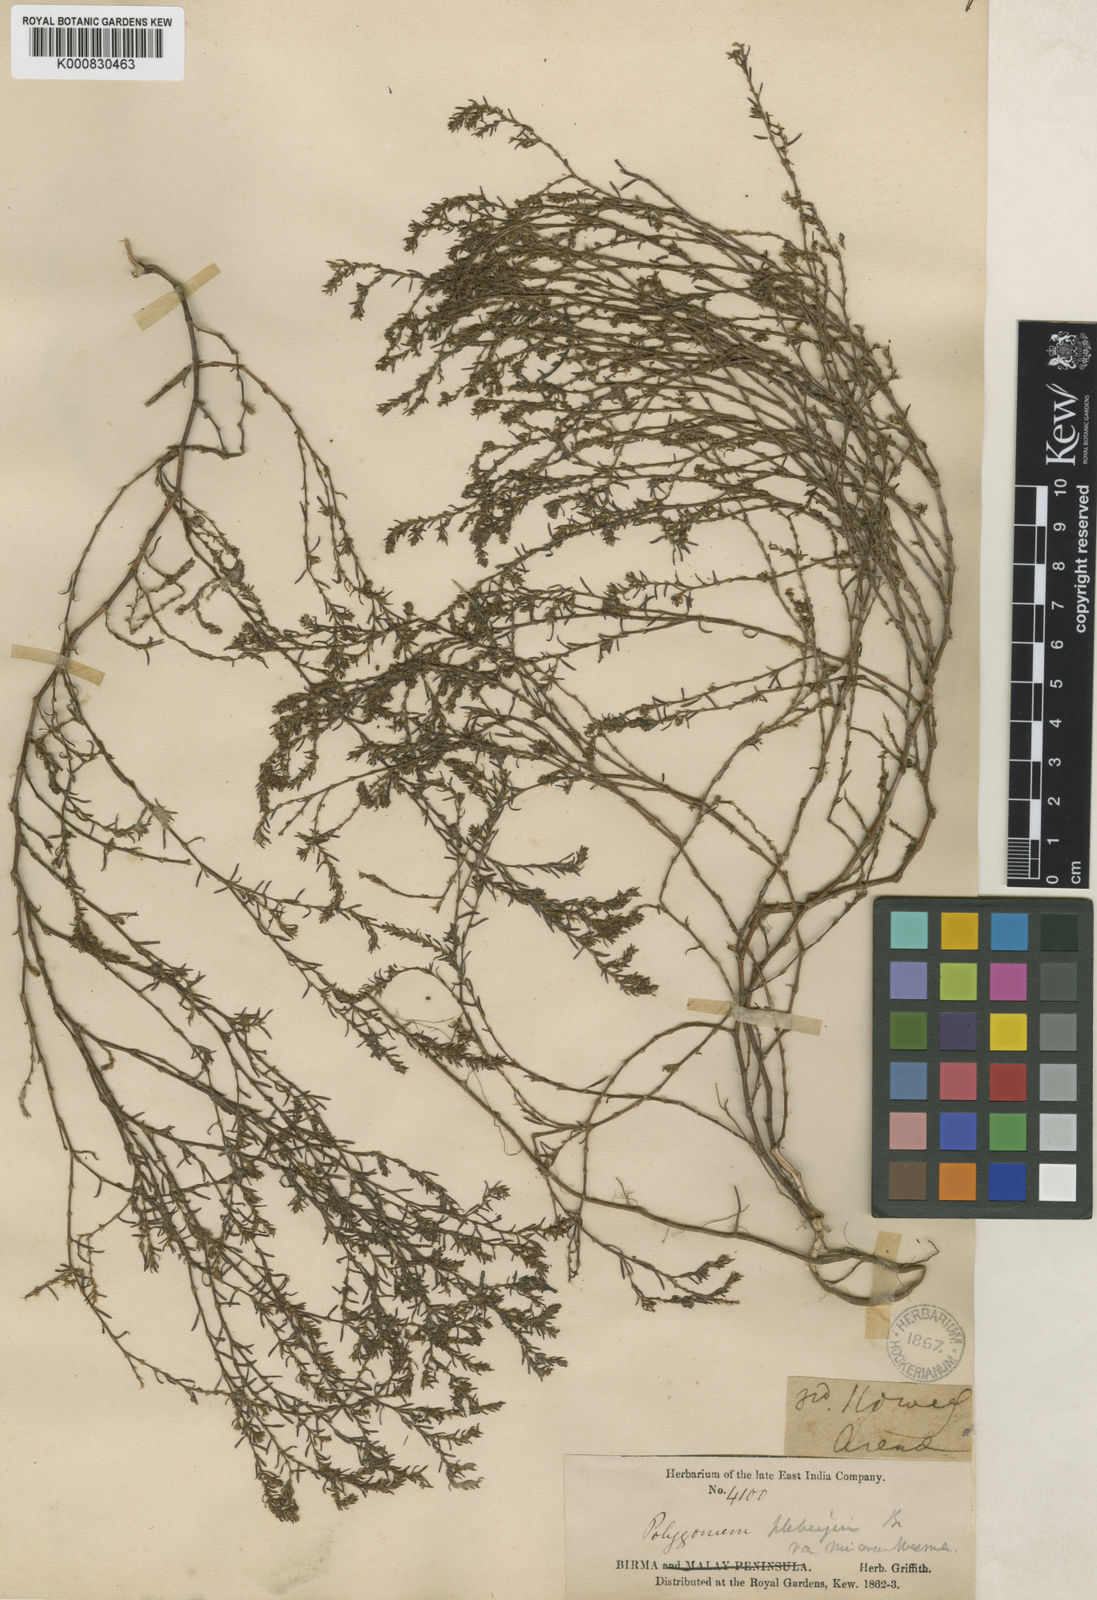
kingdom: Plantae
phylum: Tracheophyta
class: Magnoliopsida
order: Caryophyllales
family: Polygonaceae
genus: Polygonum
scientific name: Polygonum plebeium
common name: Common knotweed
